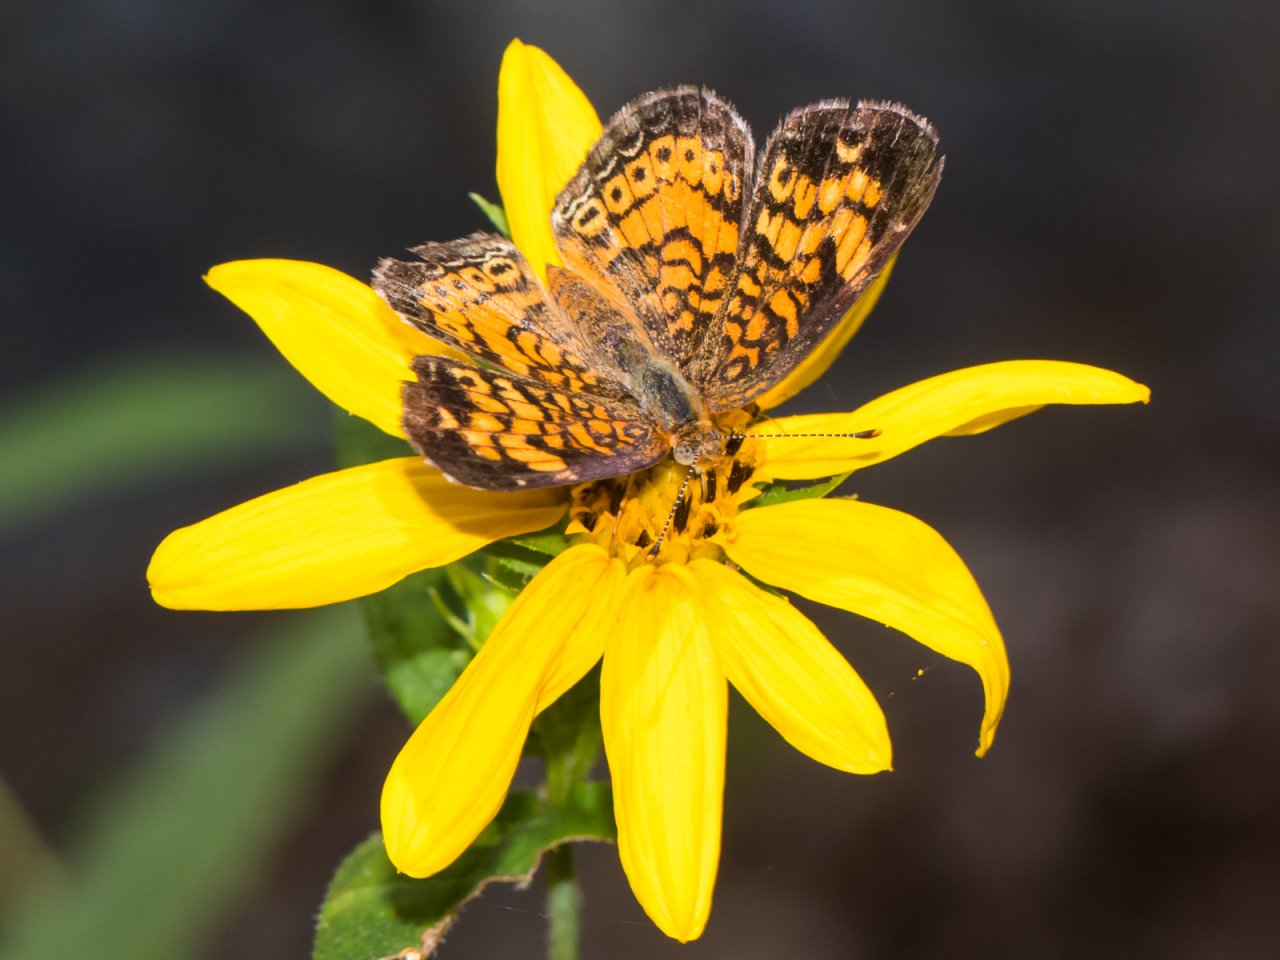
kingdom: Animalia
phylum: Arthropoda
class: Insecta
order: Lepidoptera
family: Nymphalidae
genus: Phyciodes
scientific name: Phyciodes tharos
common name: Pearl Crescent
